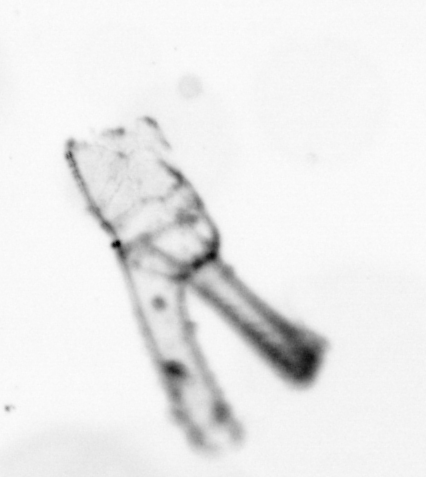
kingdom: Animalia
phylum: Annelida
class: Polychaeta
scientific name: Polychaeta
